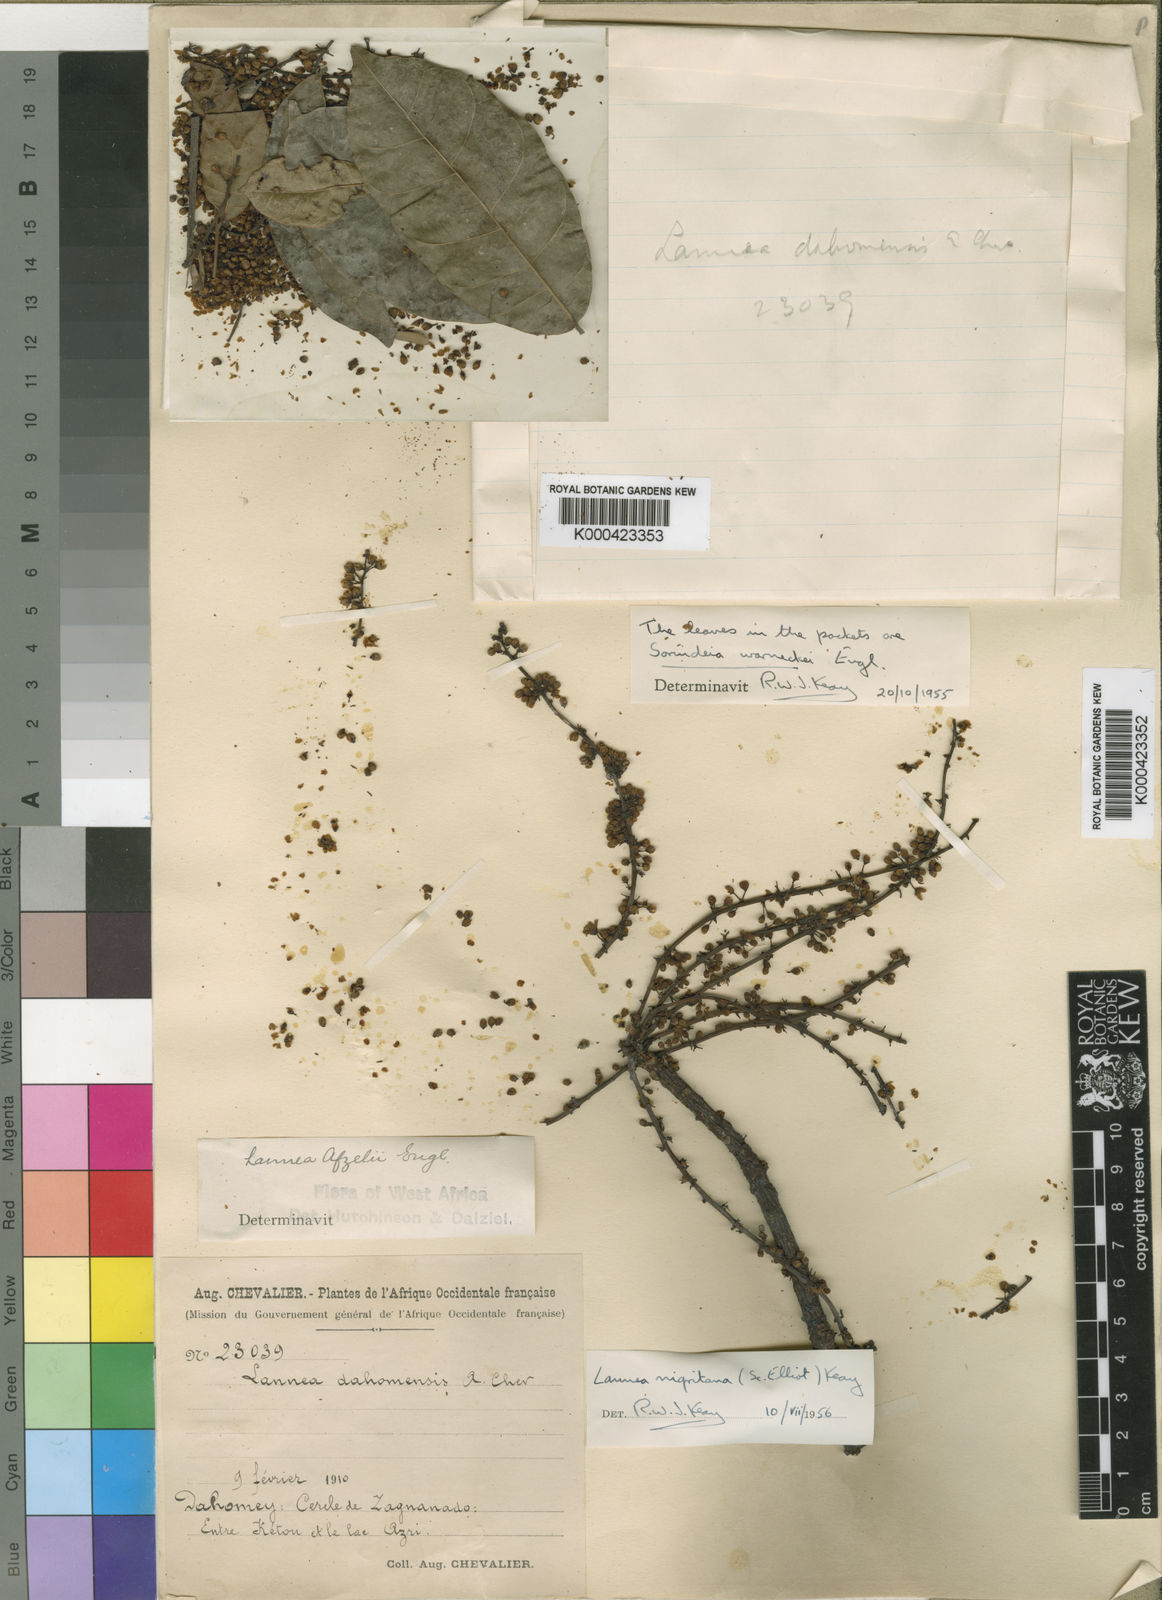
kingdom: Plantae
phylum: Tracheophyta
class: Magnoliopsida
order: Sapindales
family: Anacardiaceae
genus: Lannea
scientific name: Lannea nigritana
